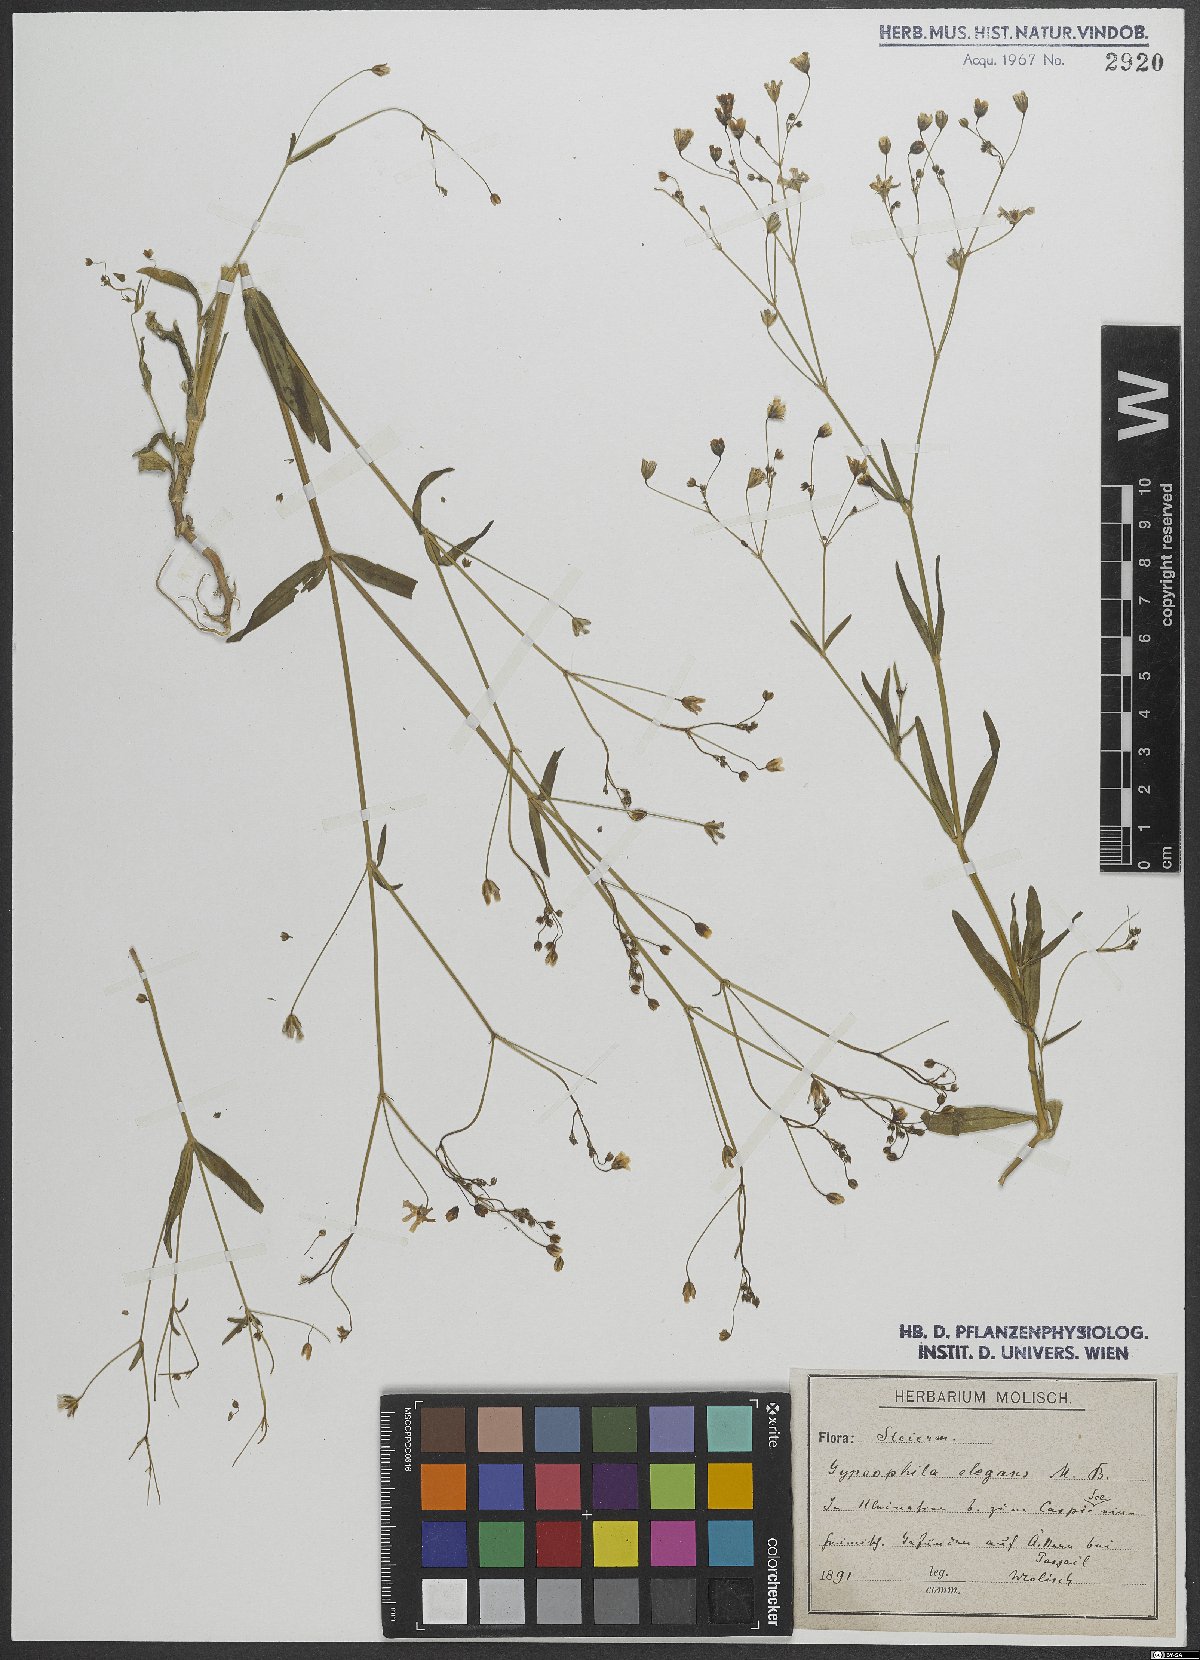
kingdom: Plantae
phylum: Tracheophyta
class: Magnoliopsida
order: Caryophyllales
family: Caryophyllaceae
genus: Gypsophila
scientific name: Gypsophila elegans
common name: Showy baby's-breath
